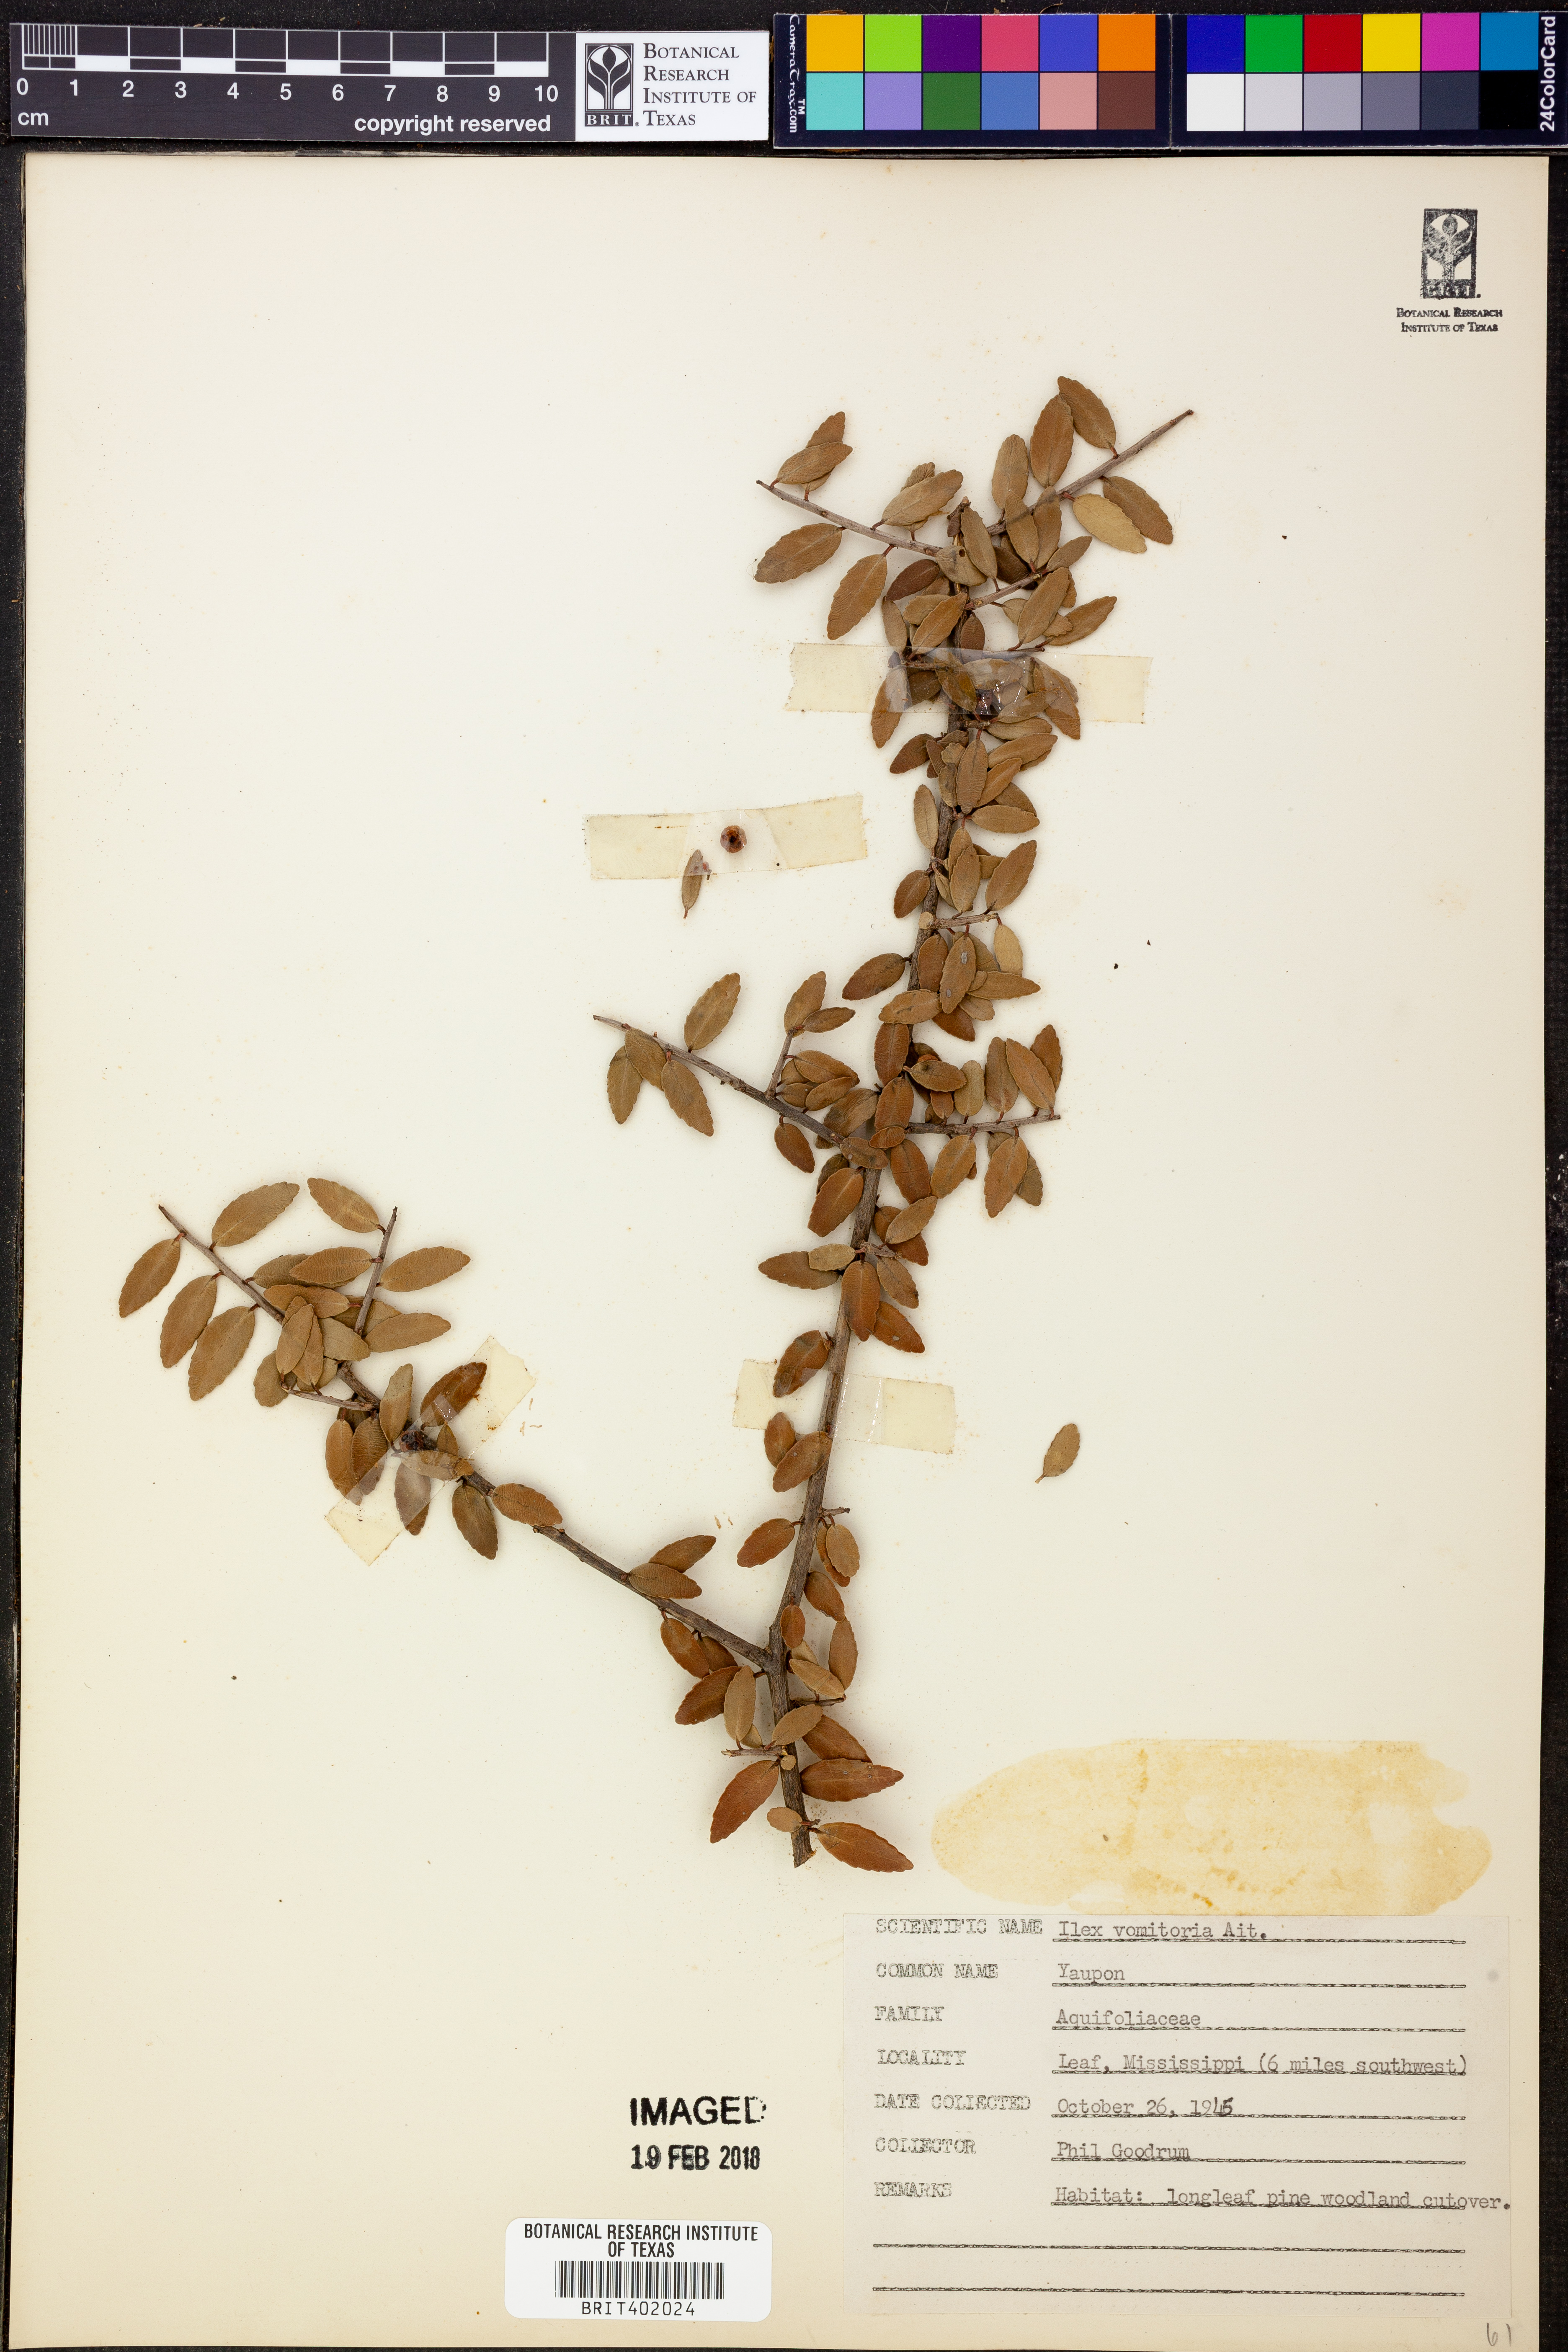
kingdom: Plantae
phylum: Tracheophyta
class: Magnoliopsida
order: Aquifoliales
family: Aquifoliaceae
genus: Ilex
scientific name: Ilex vomitoria
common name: Yaupon holly
